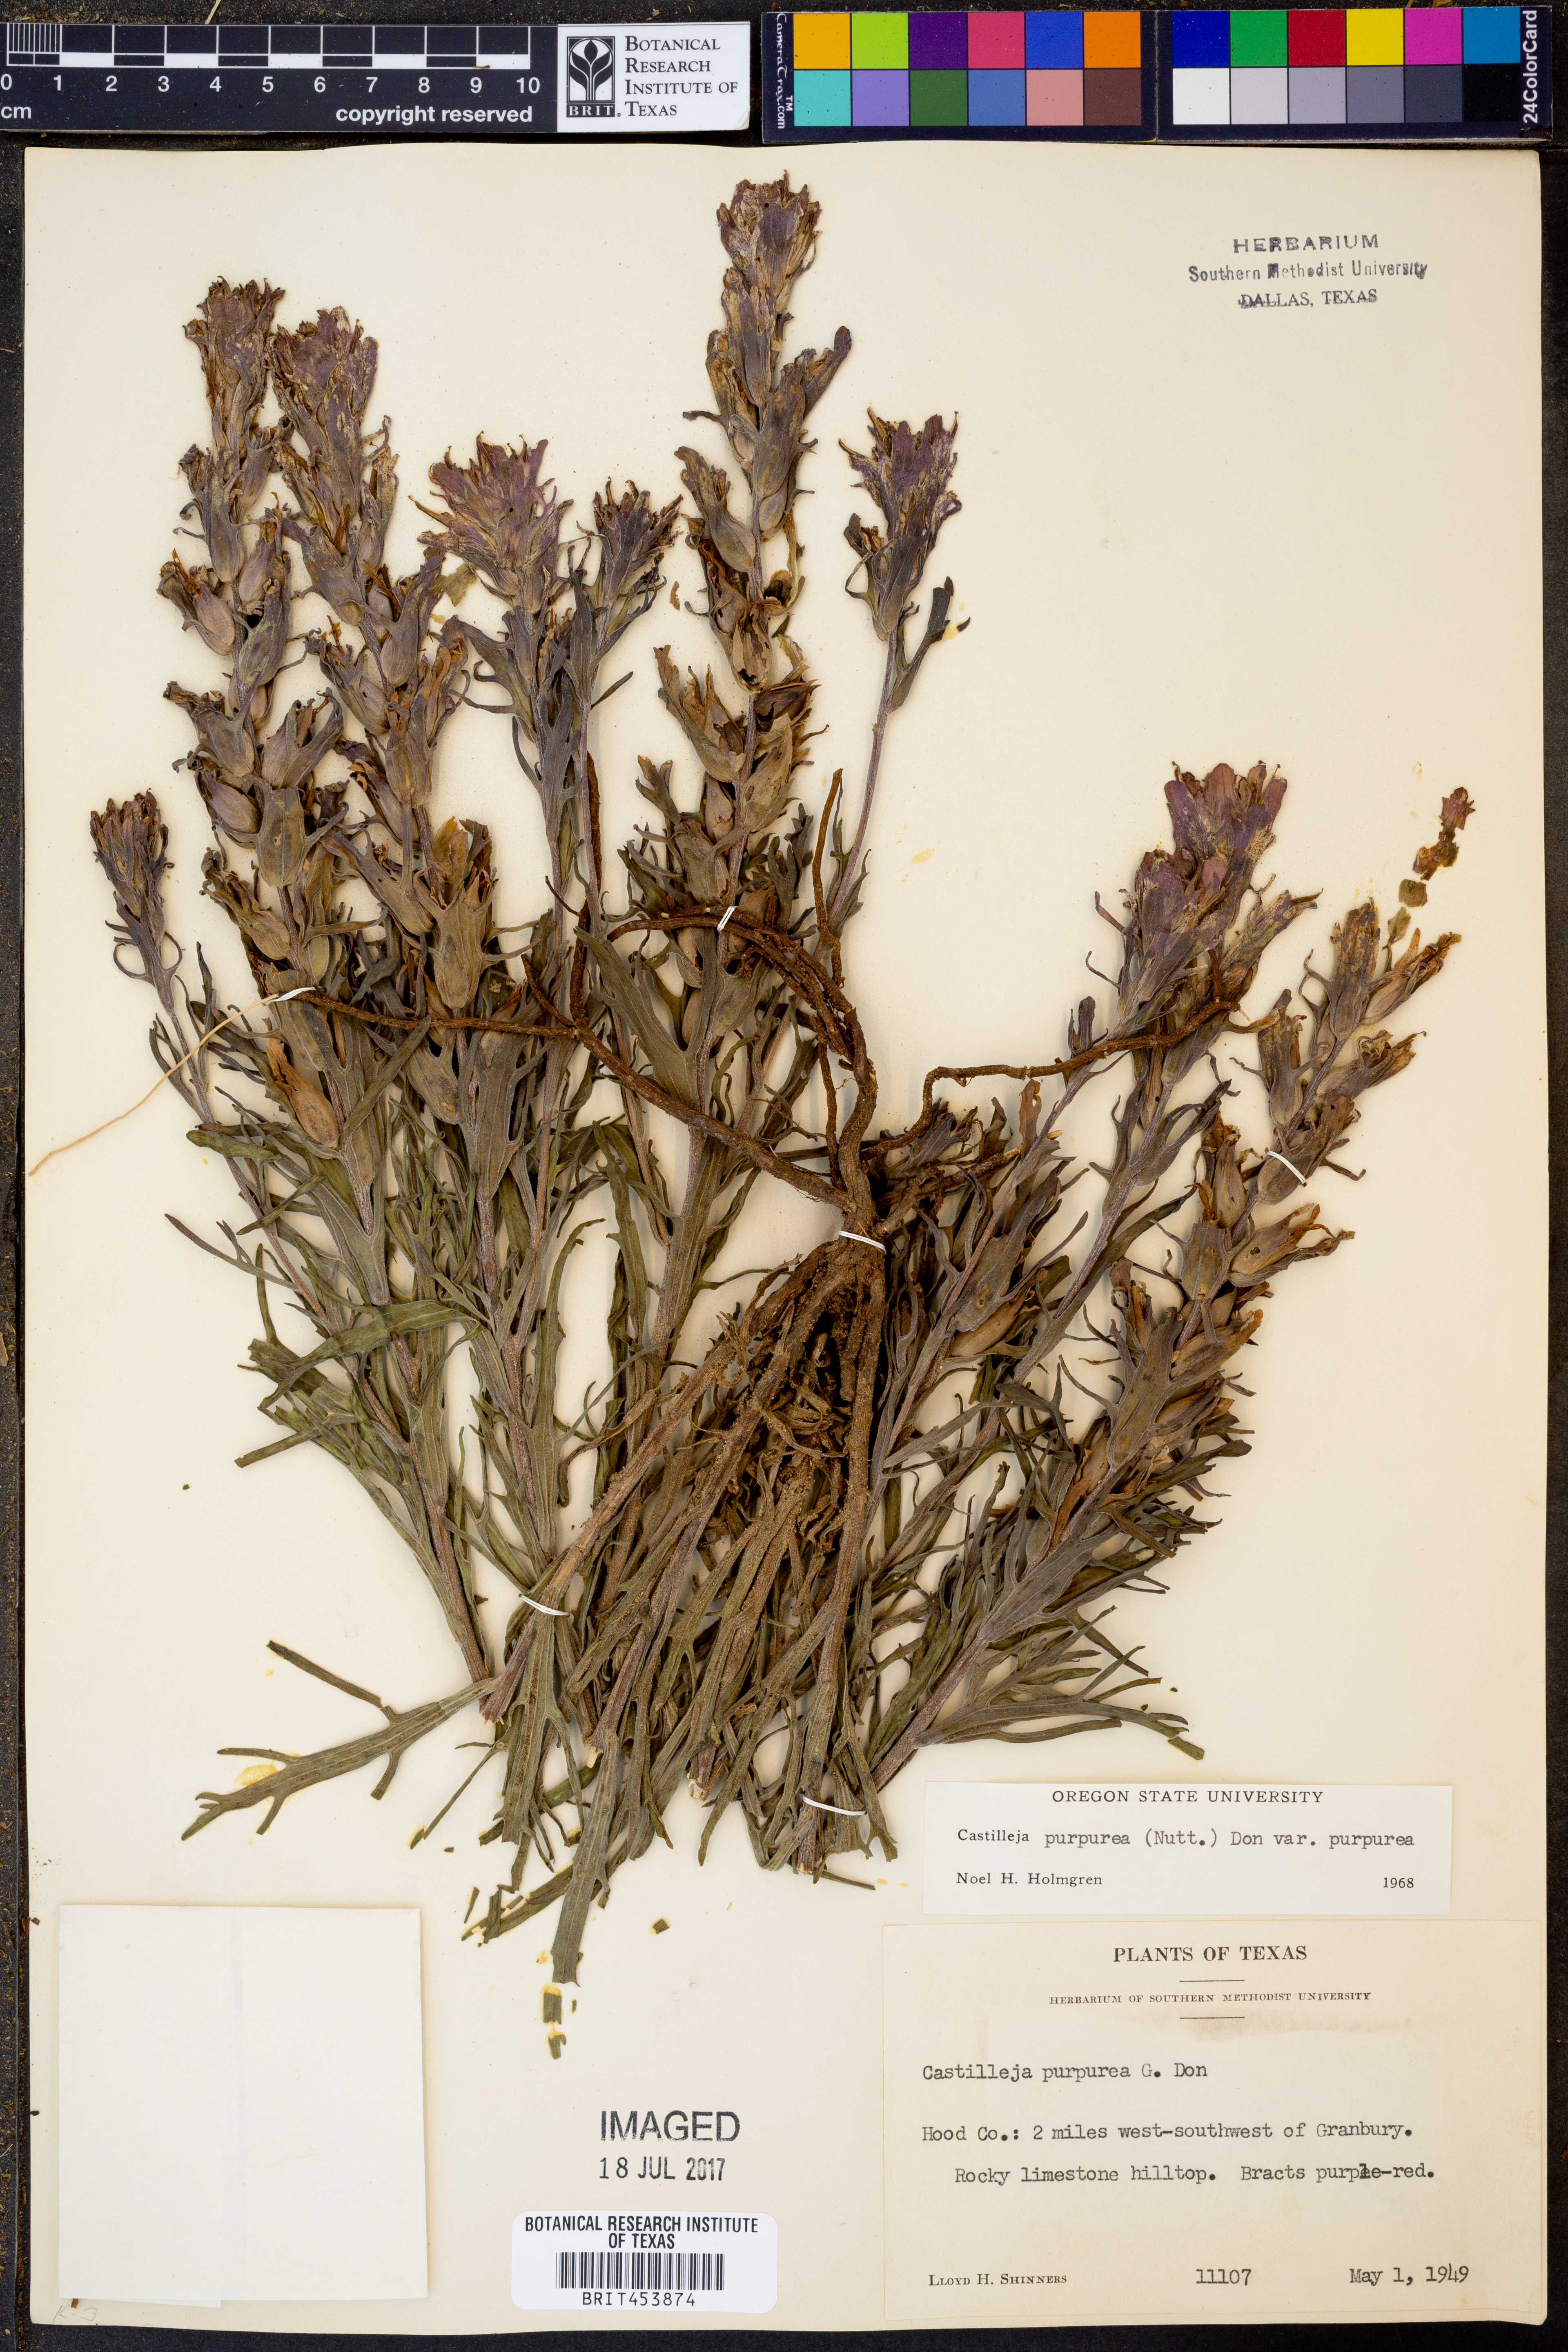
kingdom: Plantae
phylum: Tracheophyta
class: Magnoliopsida
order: Lamiales
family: Orobanchaceae
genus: Castilleja
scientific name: Castilleja purpurea
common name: Plains paintbrush
